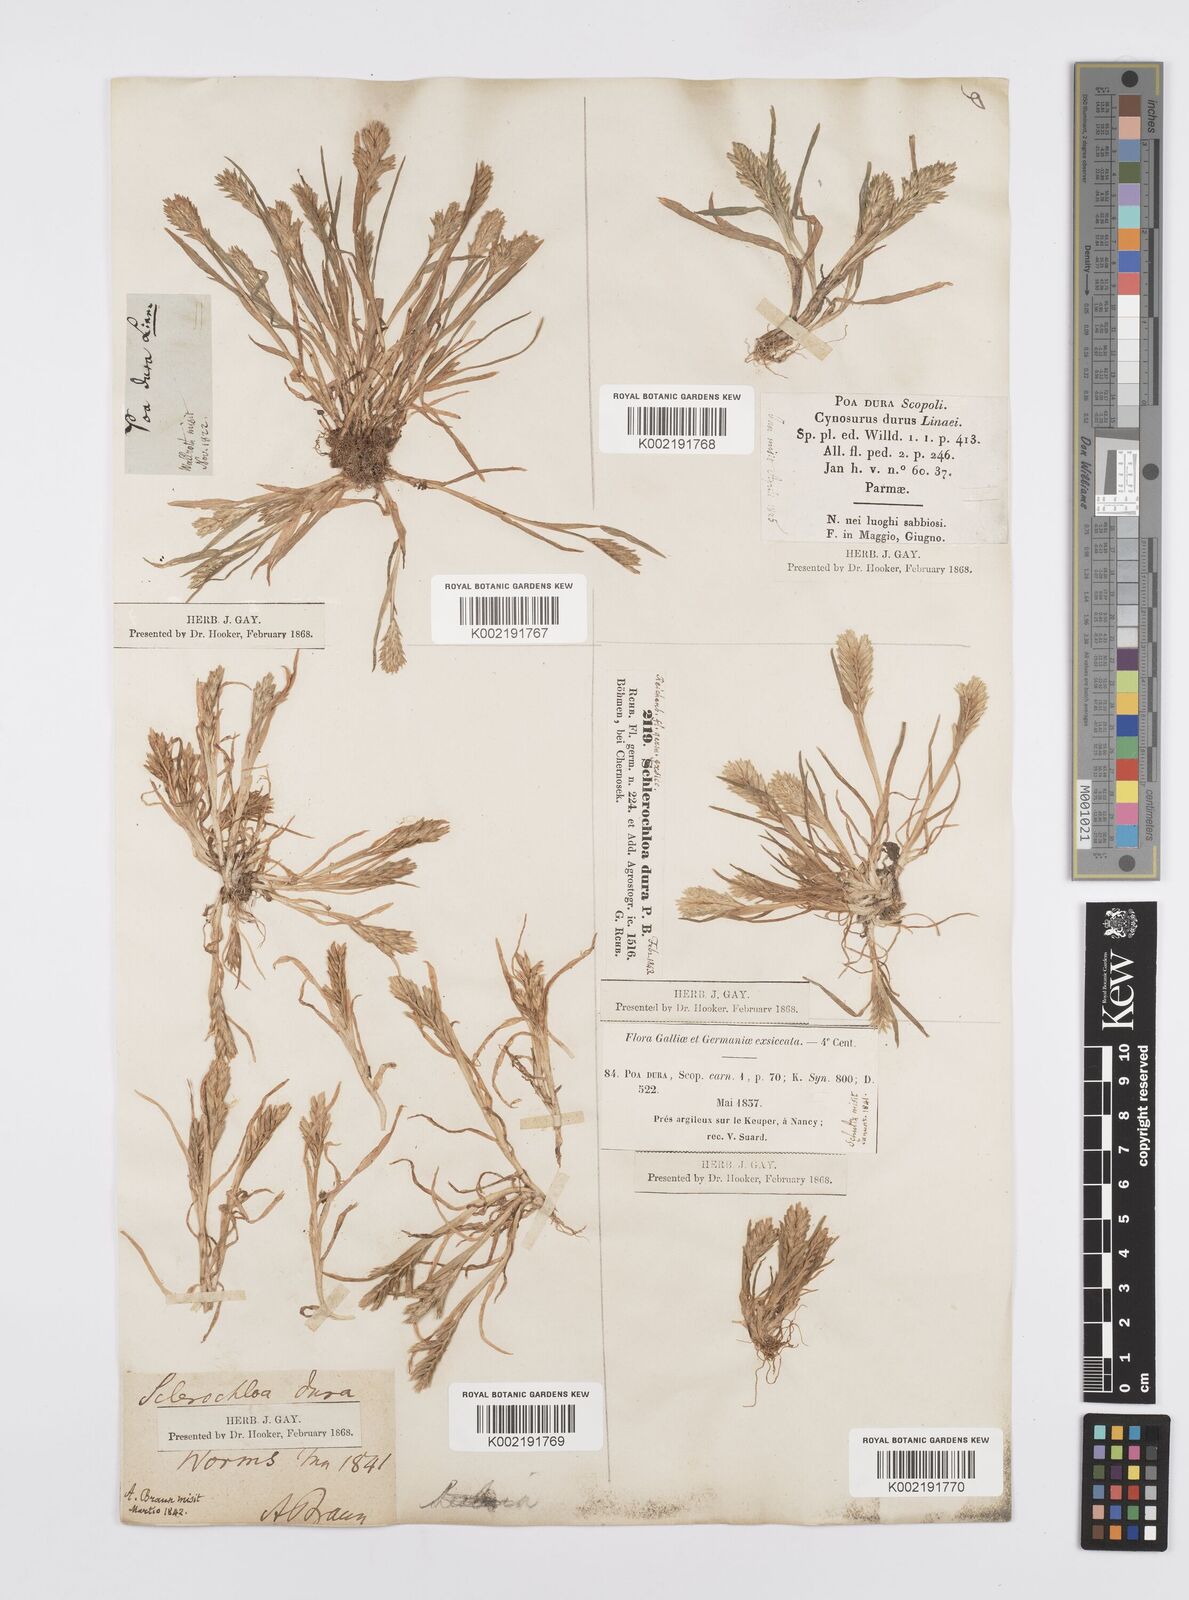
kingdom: Plantae
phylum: Tracheophyta
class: Liliopsida
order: Poales
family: Poaceae
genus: Sclerochloa
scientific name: Sclerochloa dura
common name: Common hardgrass
